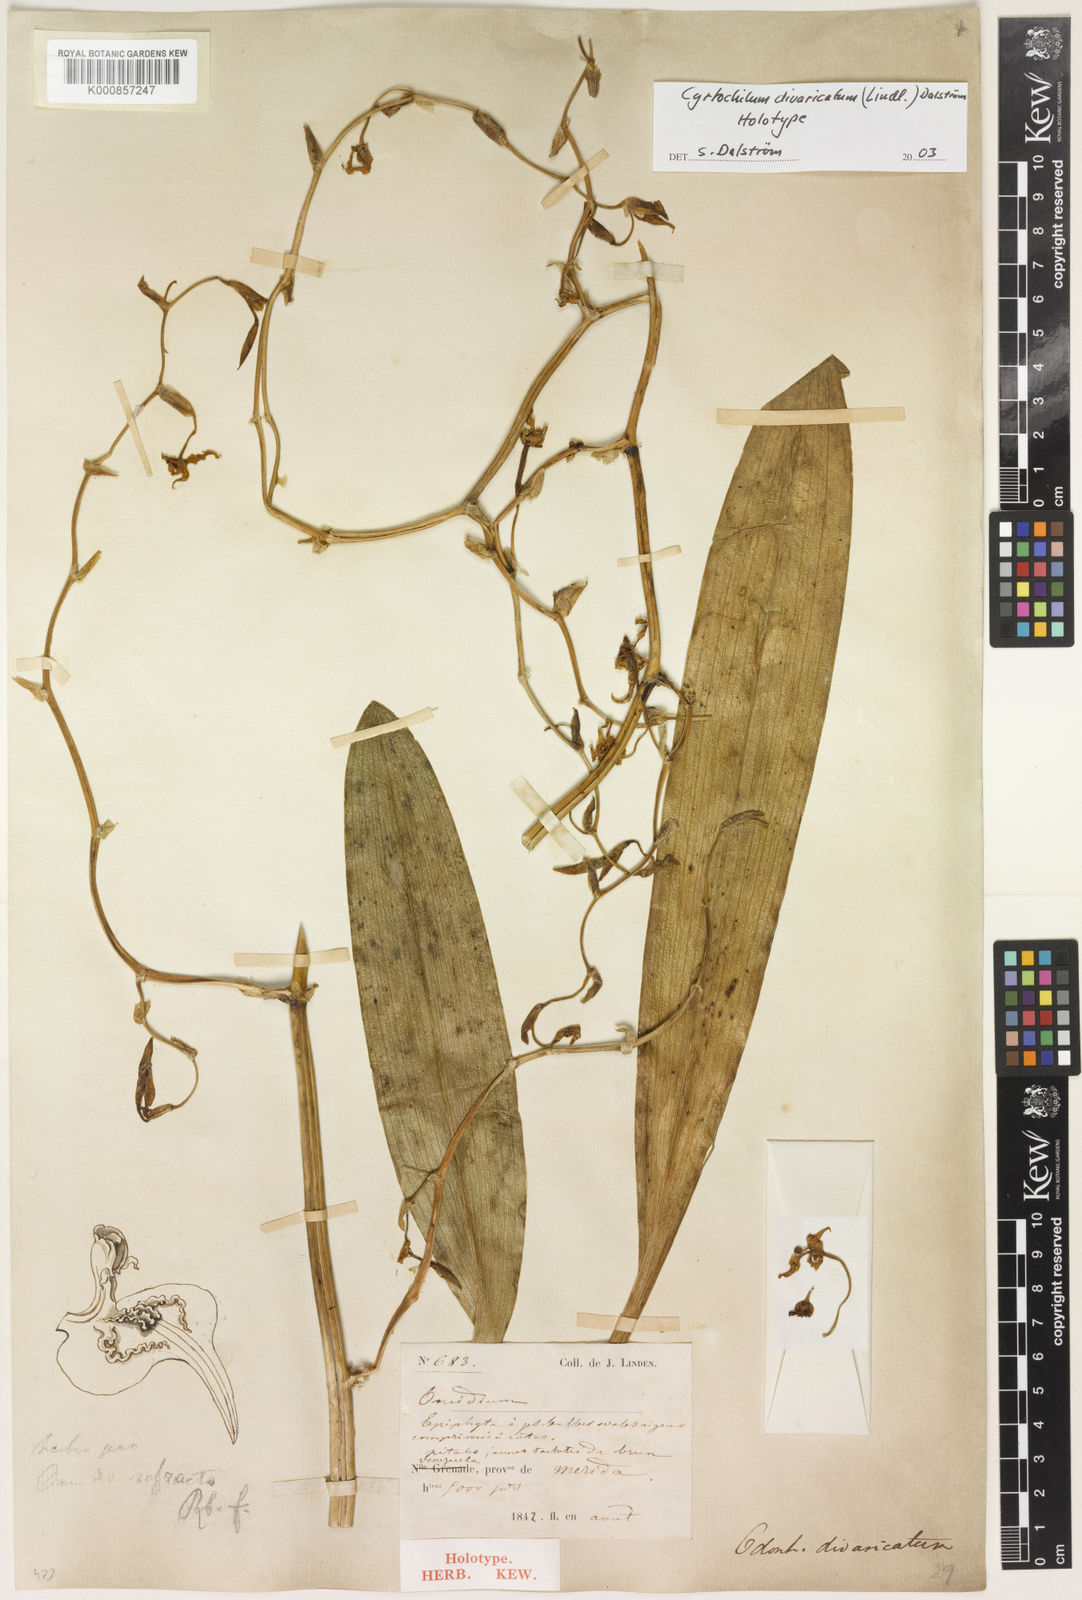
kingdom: Plantae
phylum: Tracheophyta
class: Liliopsida
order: Asparagales
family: Orchidaceae
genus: Cyrtochilum
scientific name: Cyrtochilum
